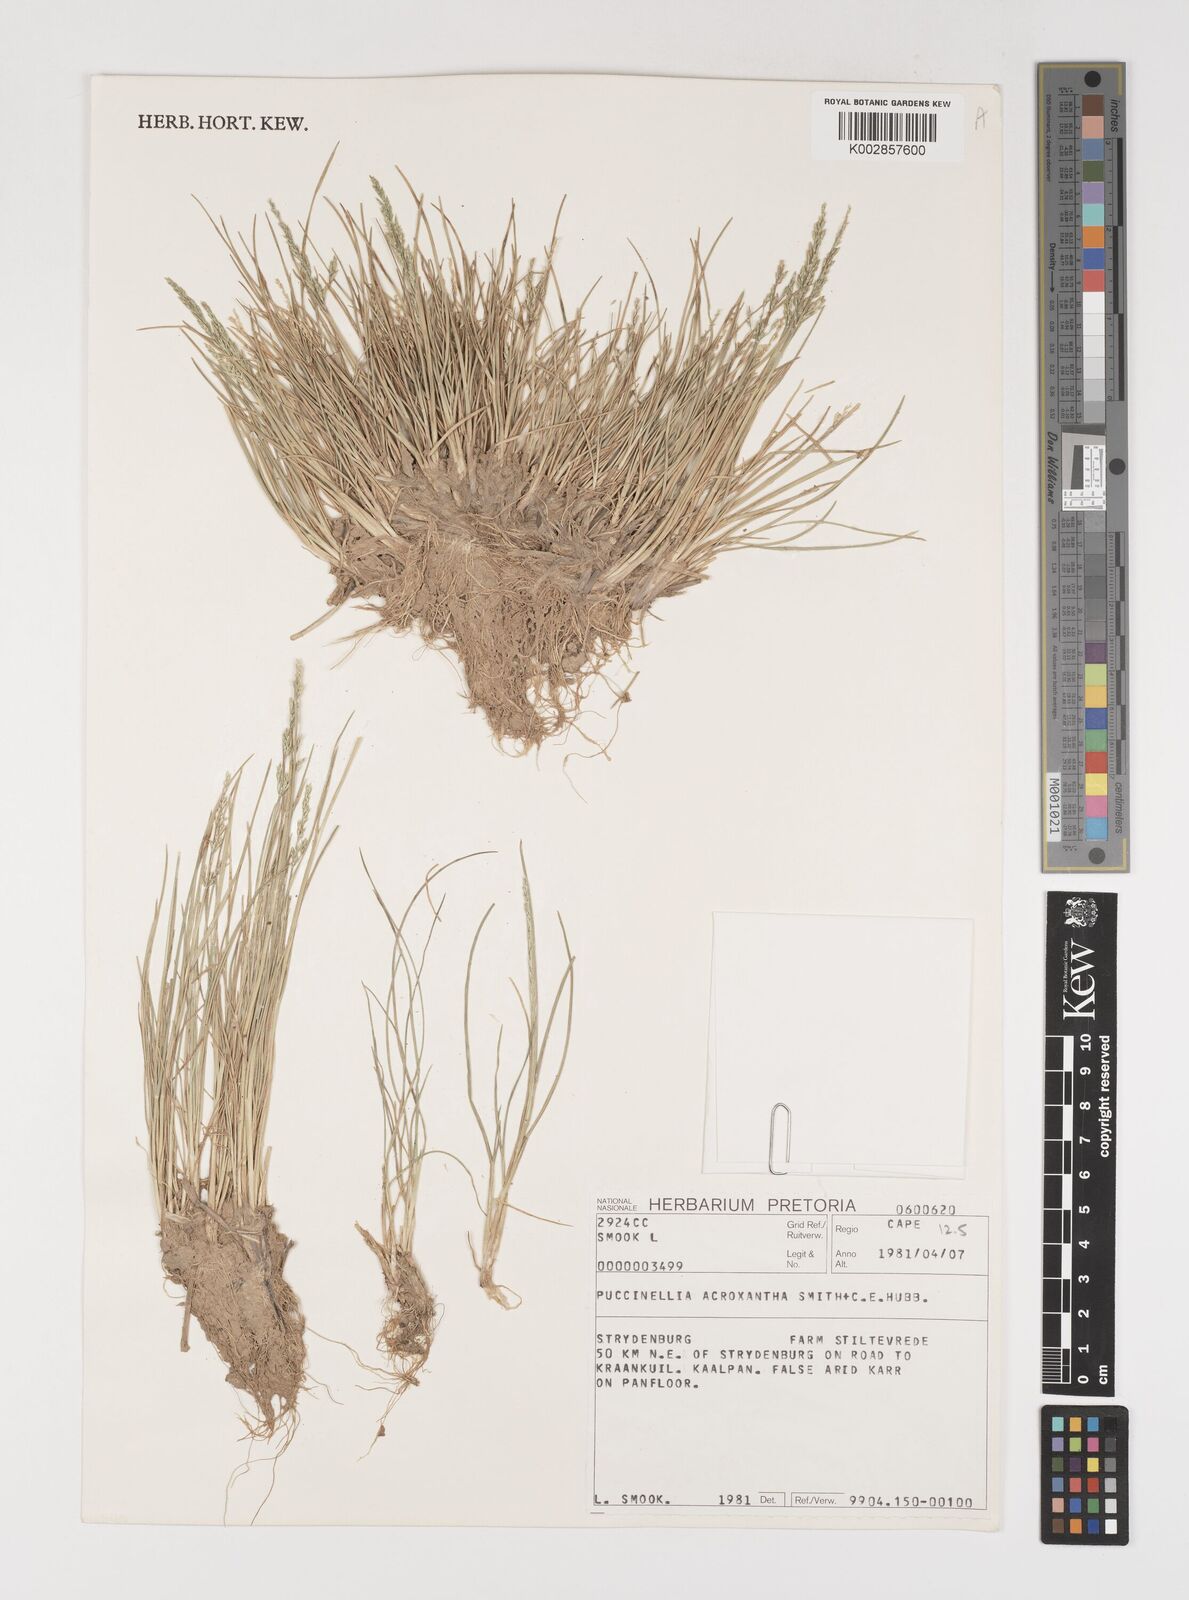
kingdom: Plantae
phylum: Tracheophyta
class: Liliopsida
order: Poales
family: Poaceae
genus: Puccinellia
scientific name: Puccinellia acroxantha
